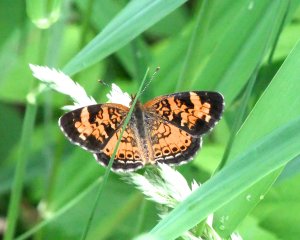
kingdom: Animalia
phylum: Arthropoda
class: Insecta
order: Lepidoptera
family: Nymphalidae
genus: Phyciodes
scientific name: Phyciodes tharos
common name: Northern Crescent
